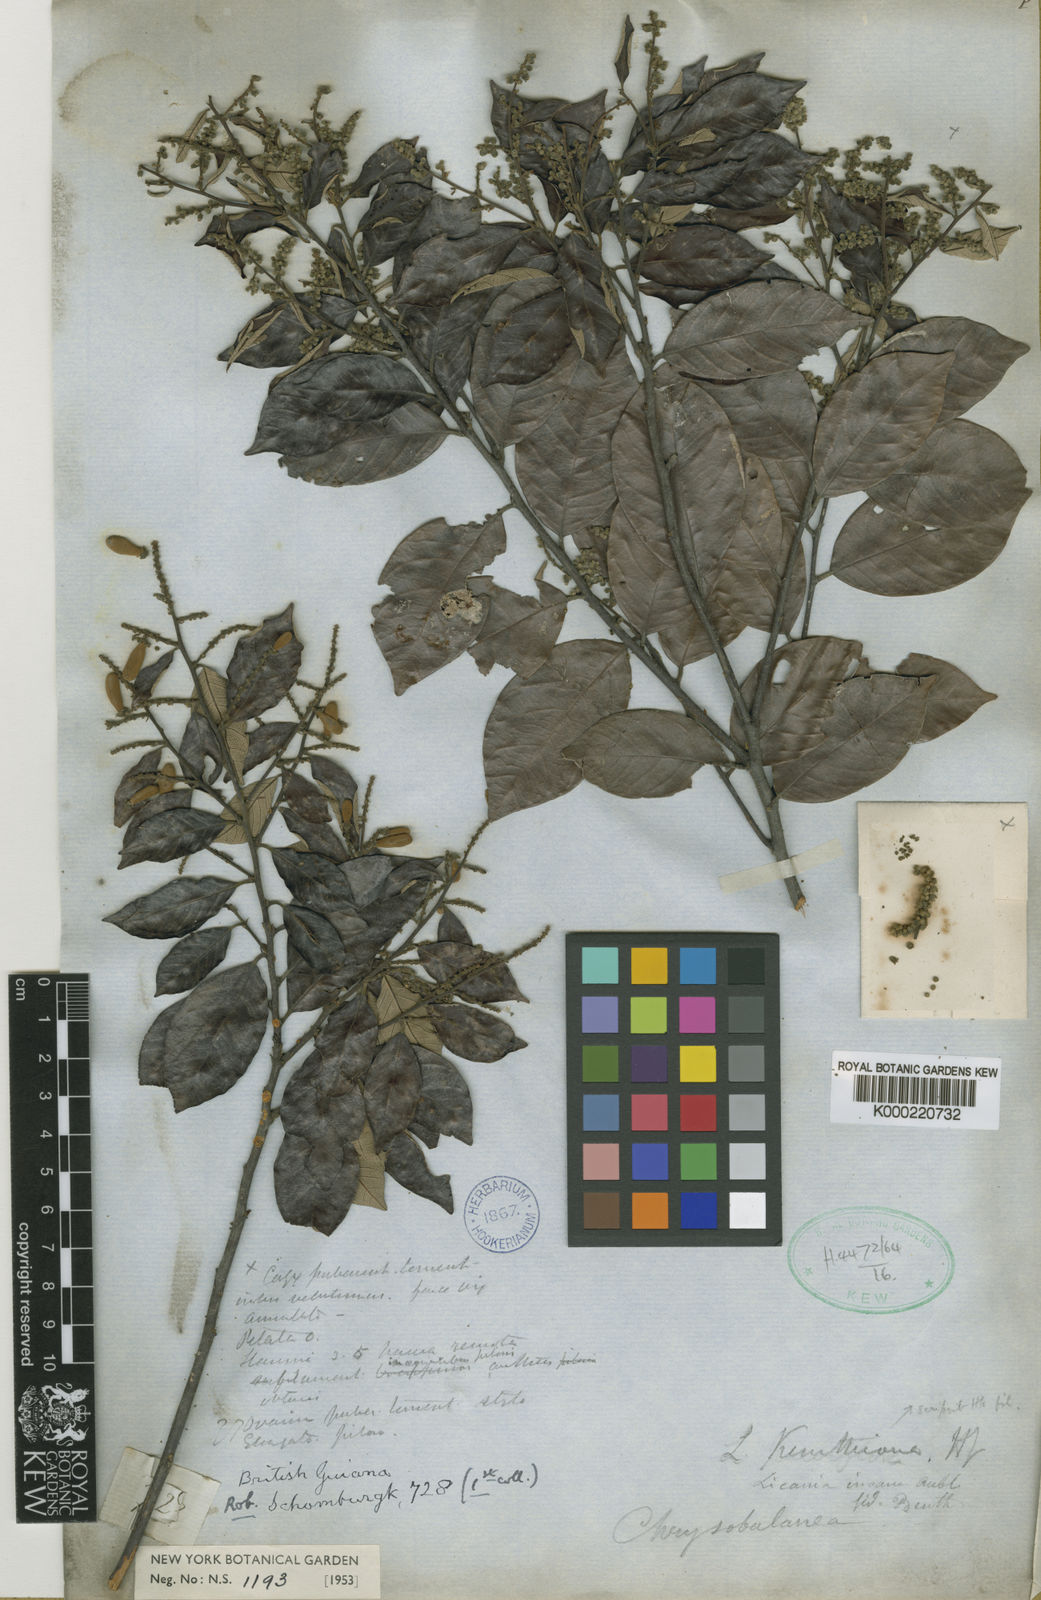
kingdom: Plantae
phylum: Tracheophyta
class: Magnoliopsida
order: Malpighiales
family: Chrysobalanaceae
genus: Licania
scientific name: Licania kunthiana
